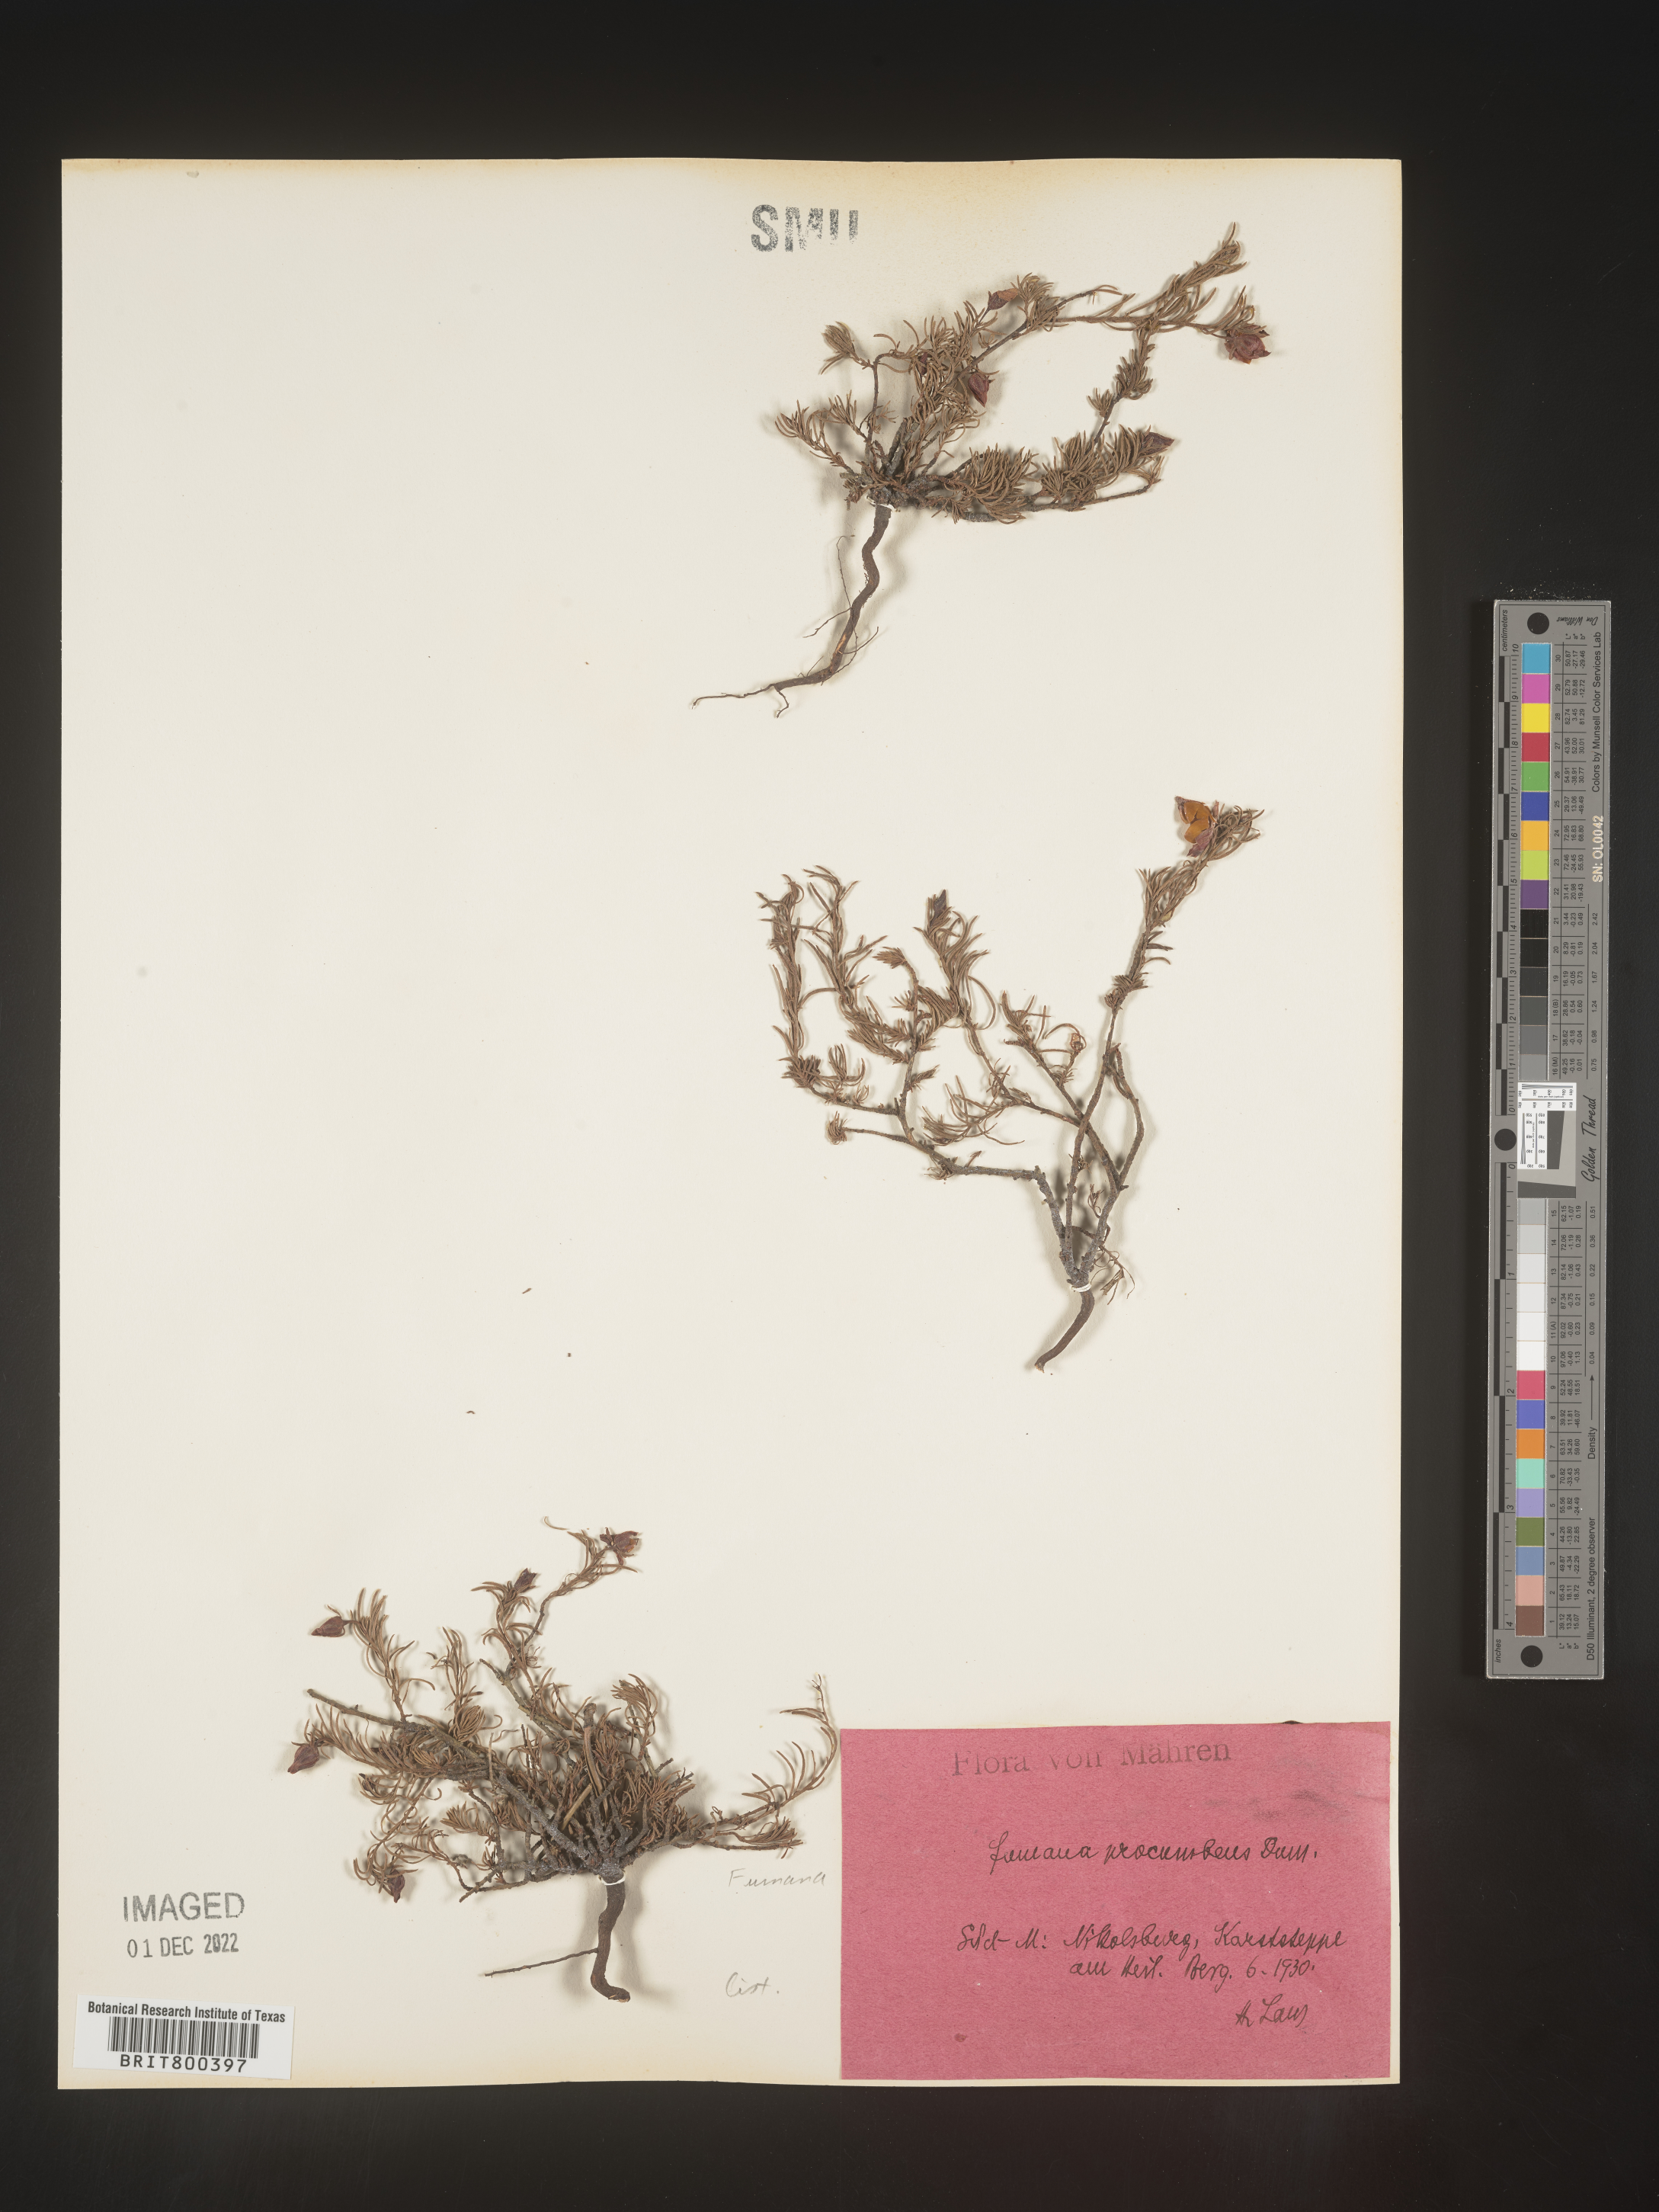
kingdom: Plantae
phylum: Tracheophyta
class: Magnoliopsida
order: Malvales
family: Cistaceae
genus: Fumana
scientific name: Fumana
